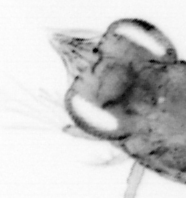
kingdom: Animalia
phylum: Arthropoda
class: Malacostraca
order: Decapoda
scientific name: Decapoda
